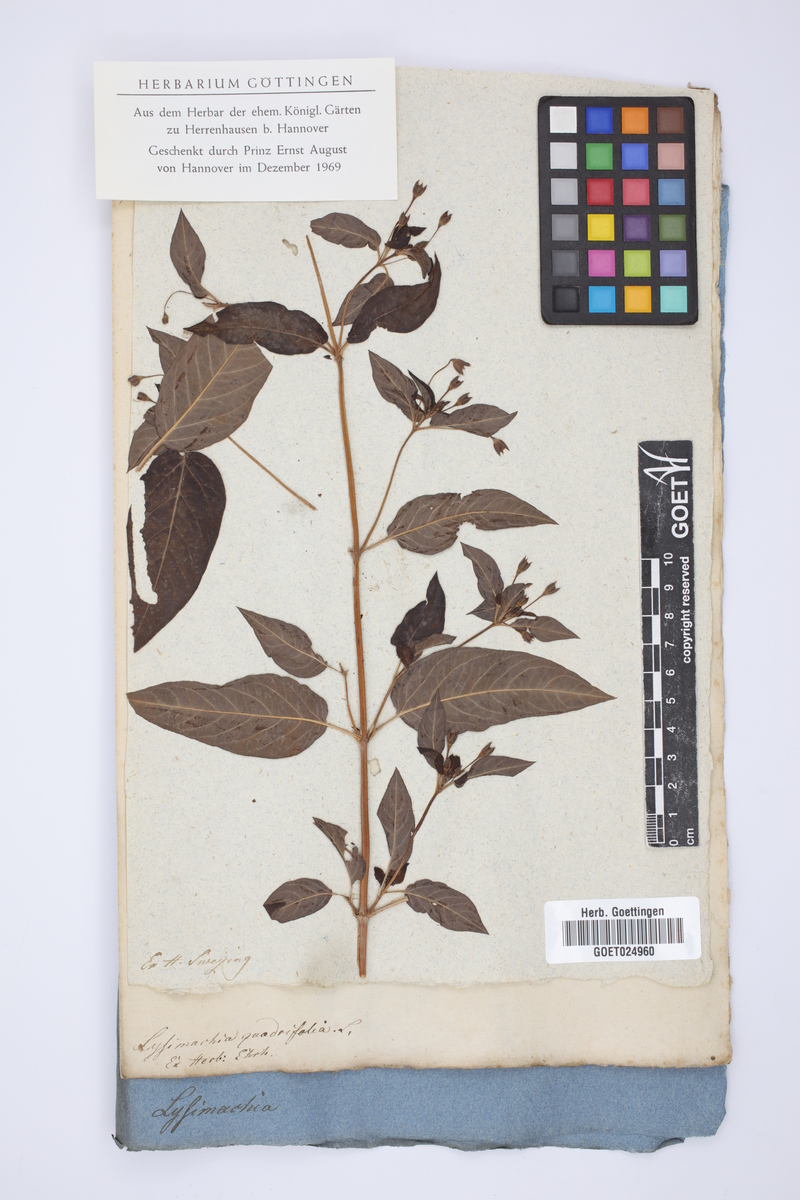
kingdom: Plantae
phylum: Tracheophyta
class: Magnoliopsida
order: Ericales
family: Primulaceae
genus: Lysimachia
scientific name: Lysimachia quadrifolia
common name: Whorled loosestrife
